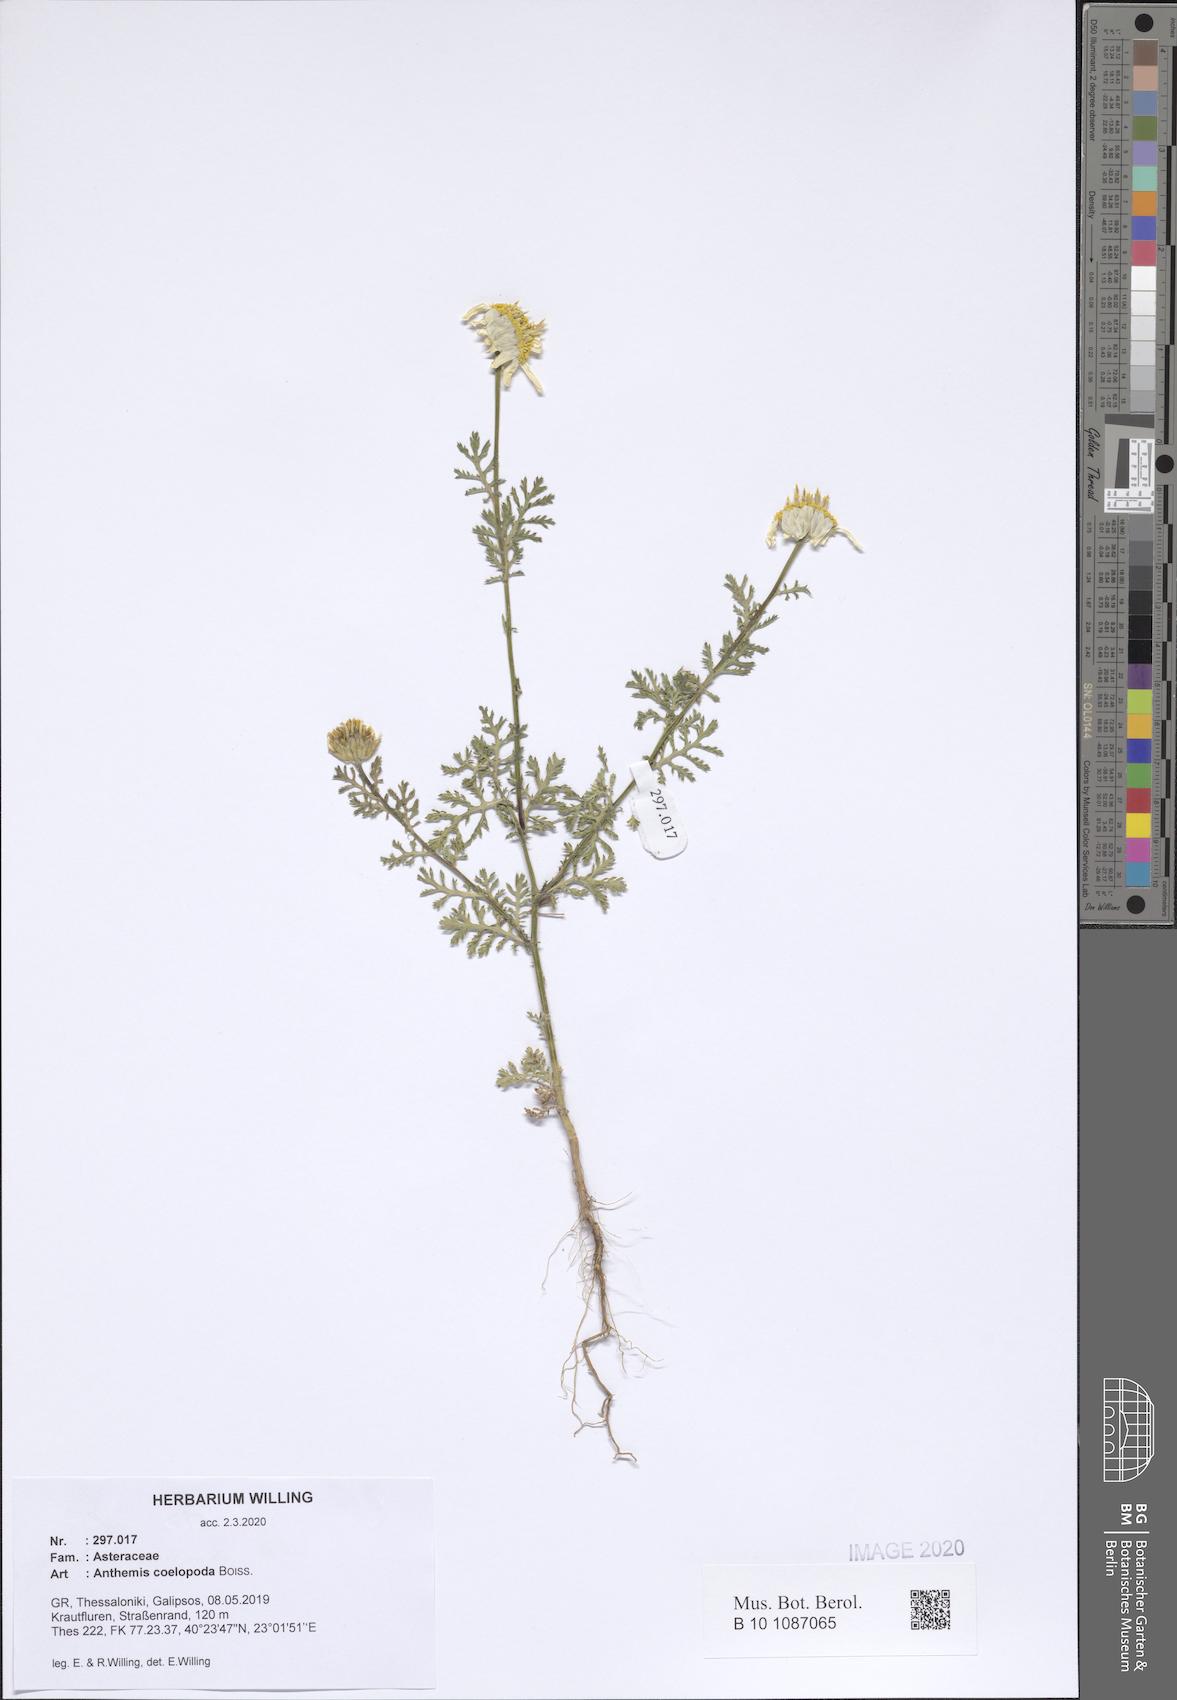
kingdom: Plantae
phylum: Tracheophyta
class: Magnoliopsida
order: Asterales
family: Asteraceae
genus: Cota
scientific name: Cota coelopoda
